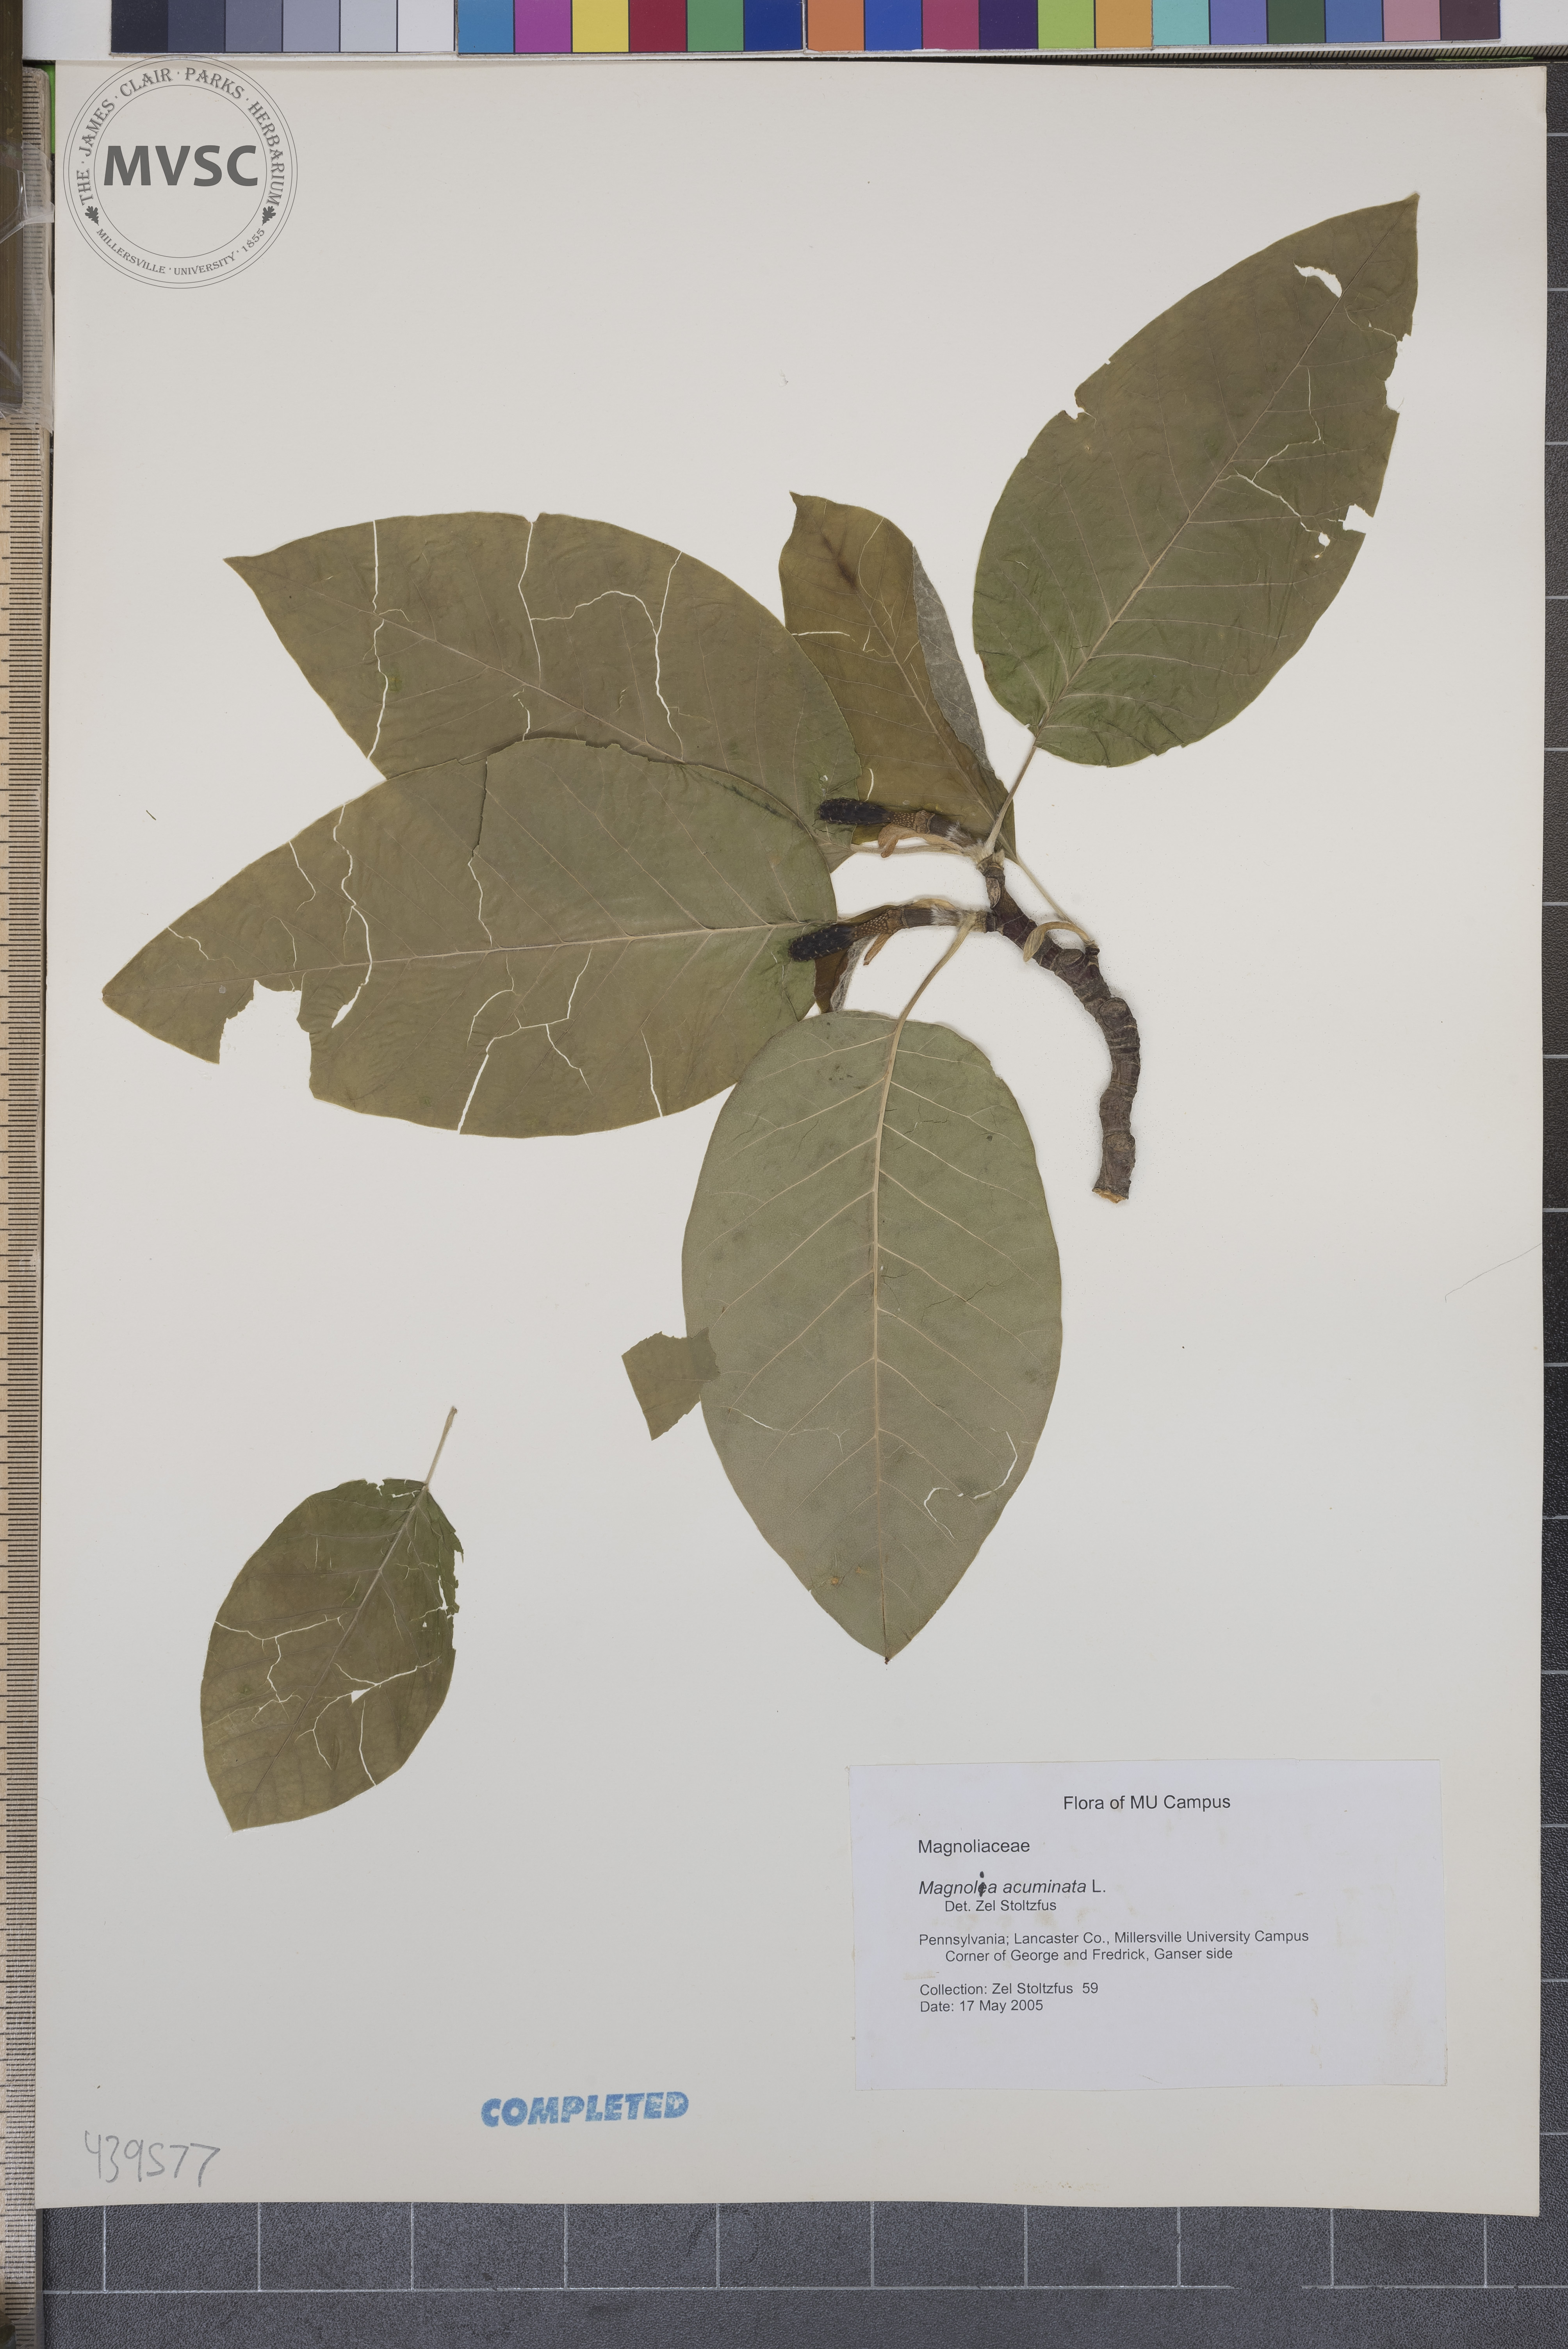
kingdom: Plantae
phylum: Tracheophyta
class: Magnoliopsida
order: Magnoliales
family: Magnoliaceae
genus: Magnolia
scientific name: Magnolia acuminata
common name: cucumber magnolia
